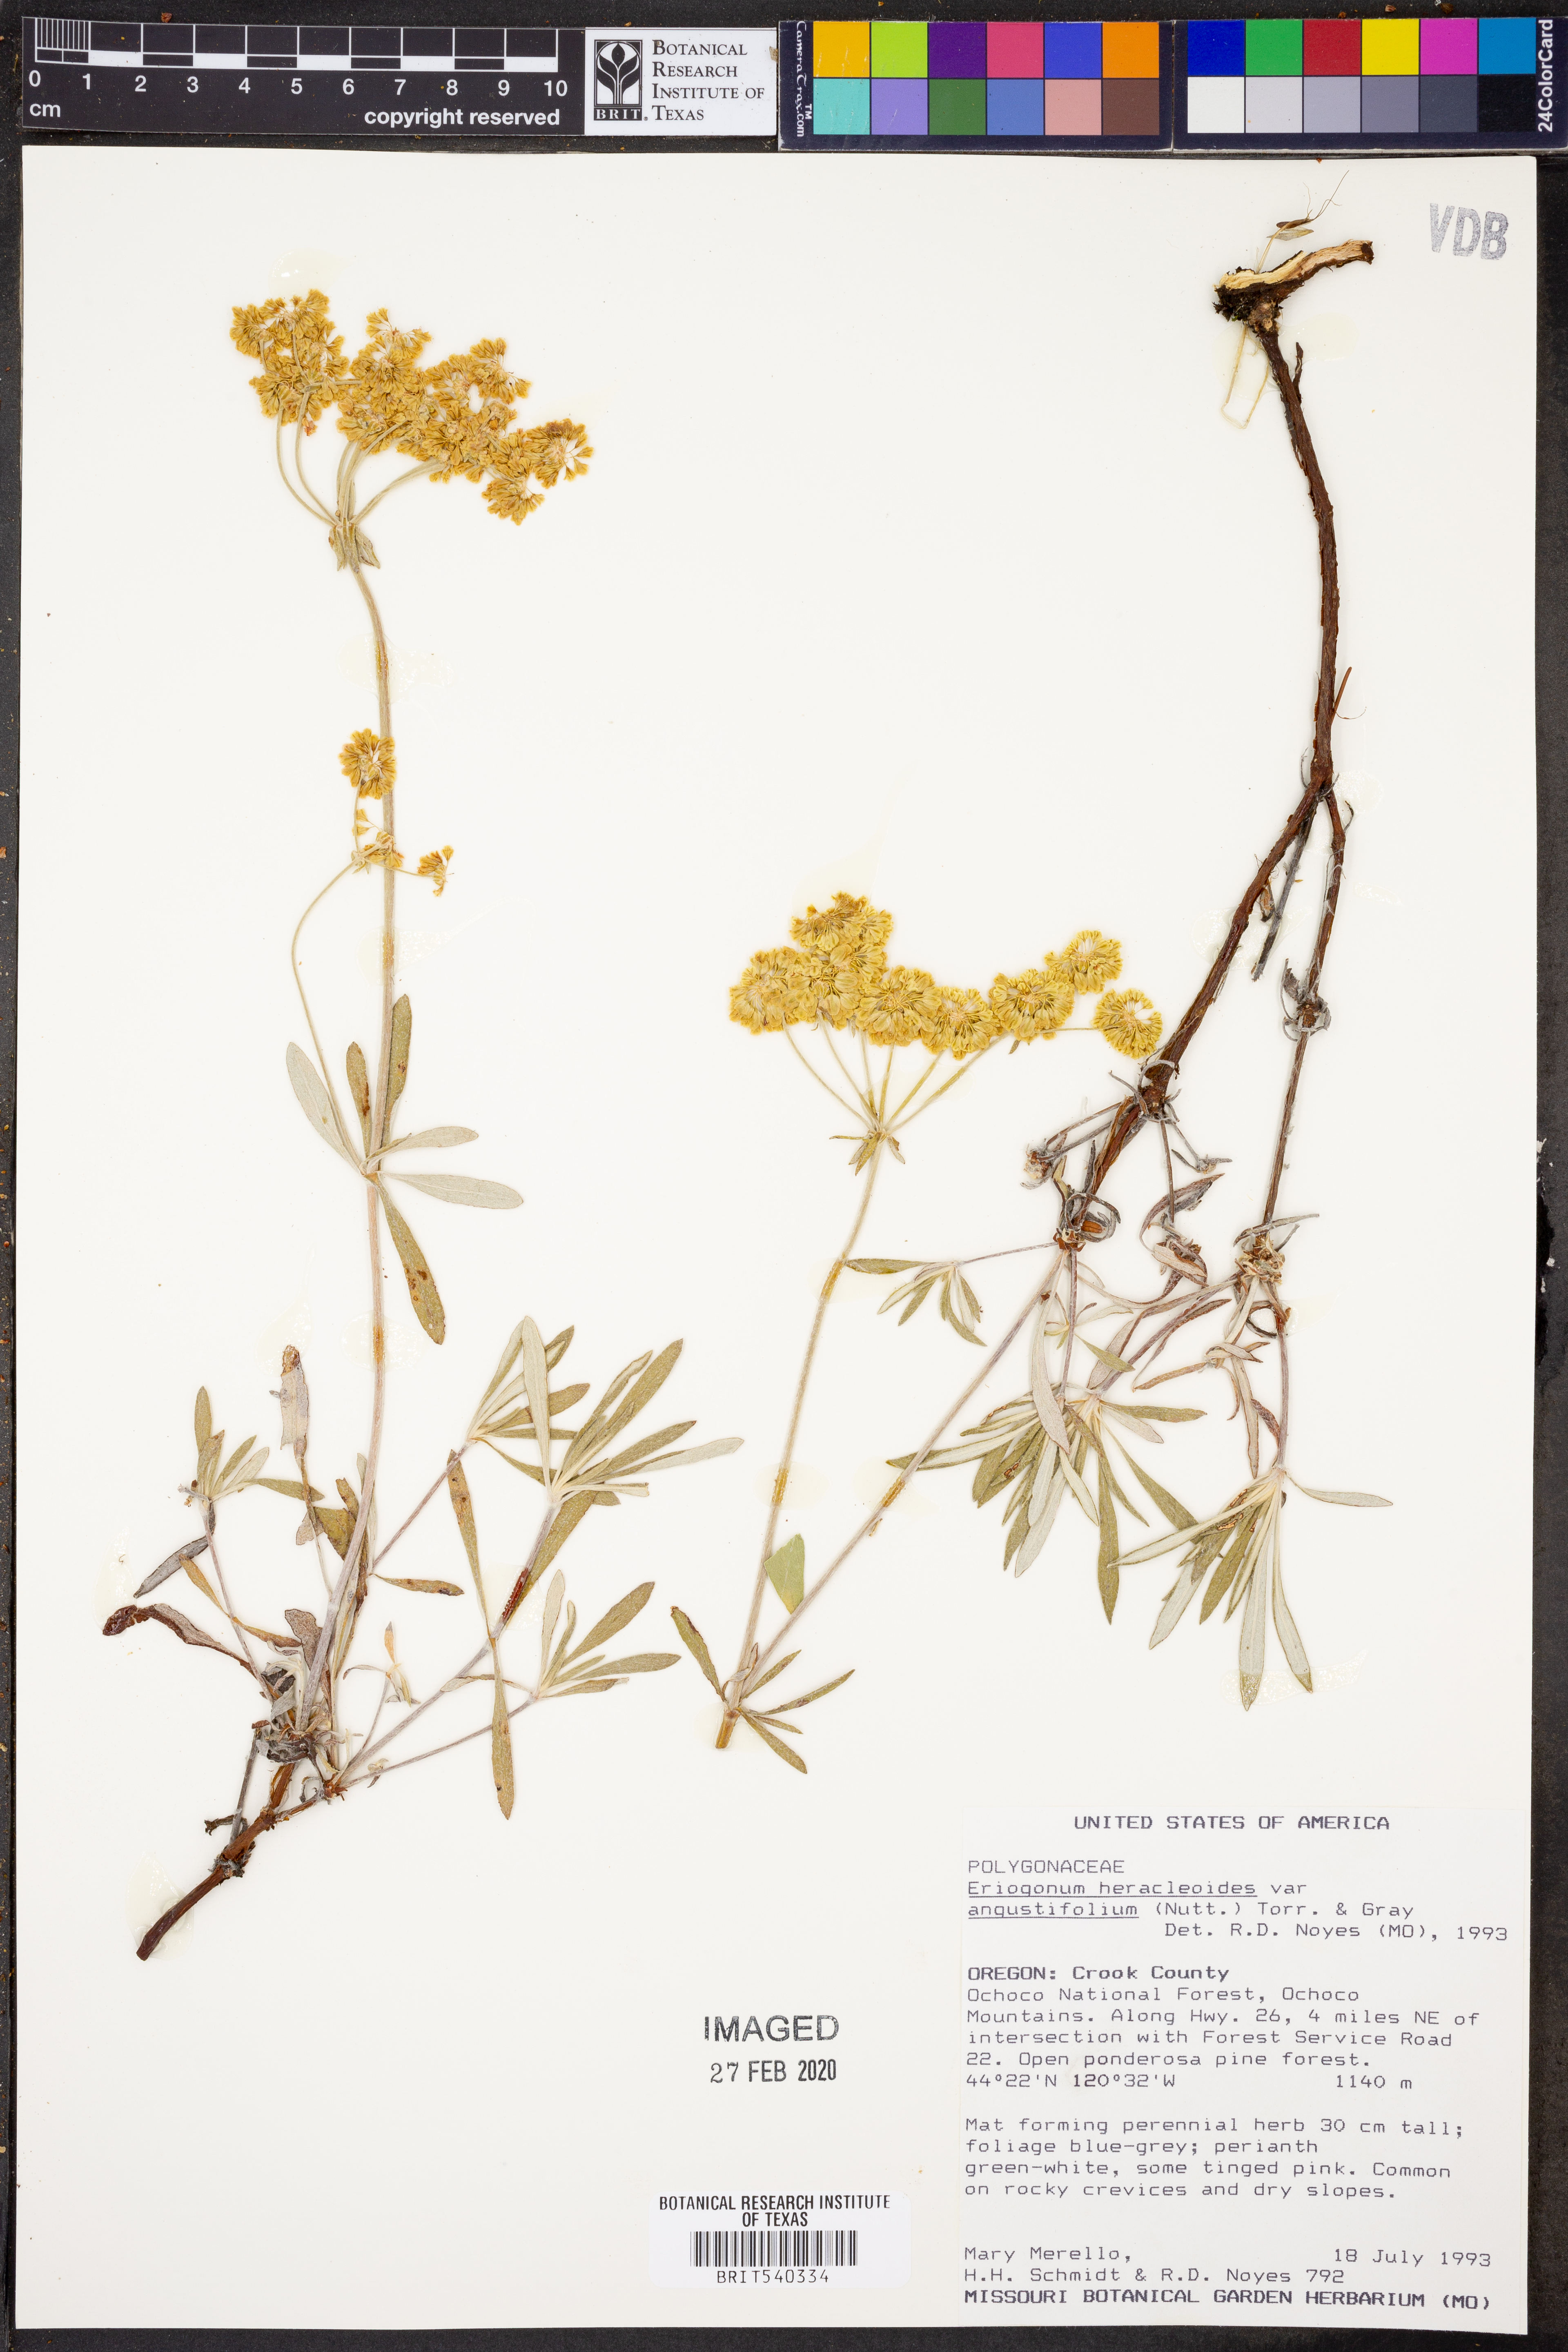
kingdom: Plantae
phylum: Tracheophyta
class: Magnoliopsida
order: Caryophyllales
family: Polygonaceae
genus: Eriogonum
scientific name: Eriogonum heracleoides
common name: Wyeth's buckwheat
